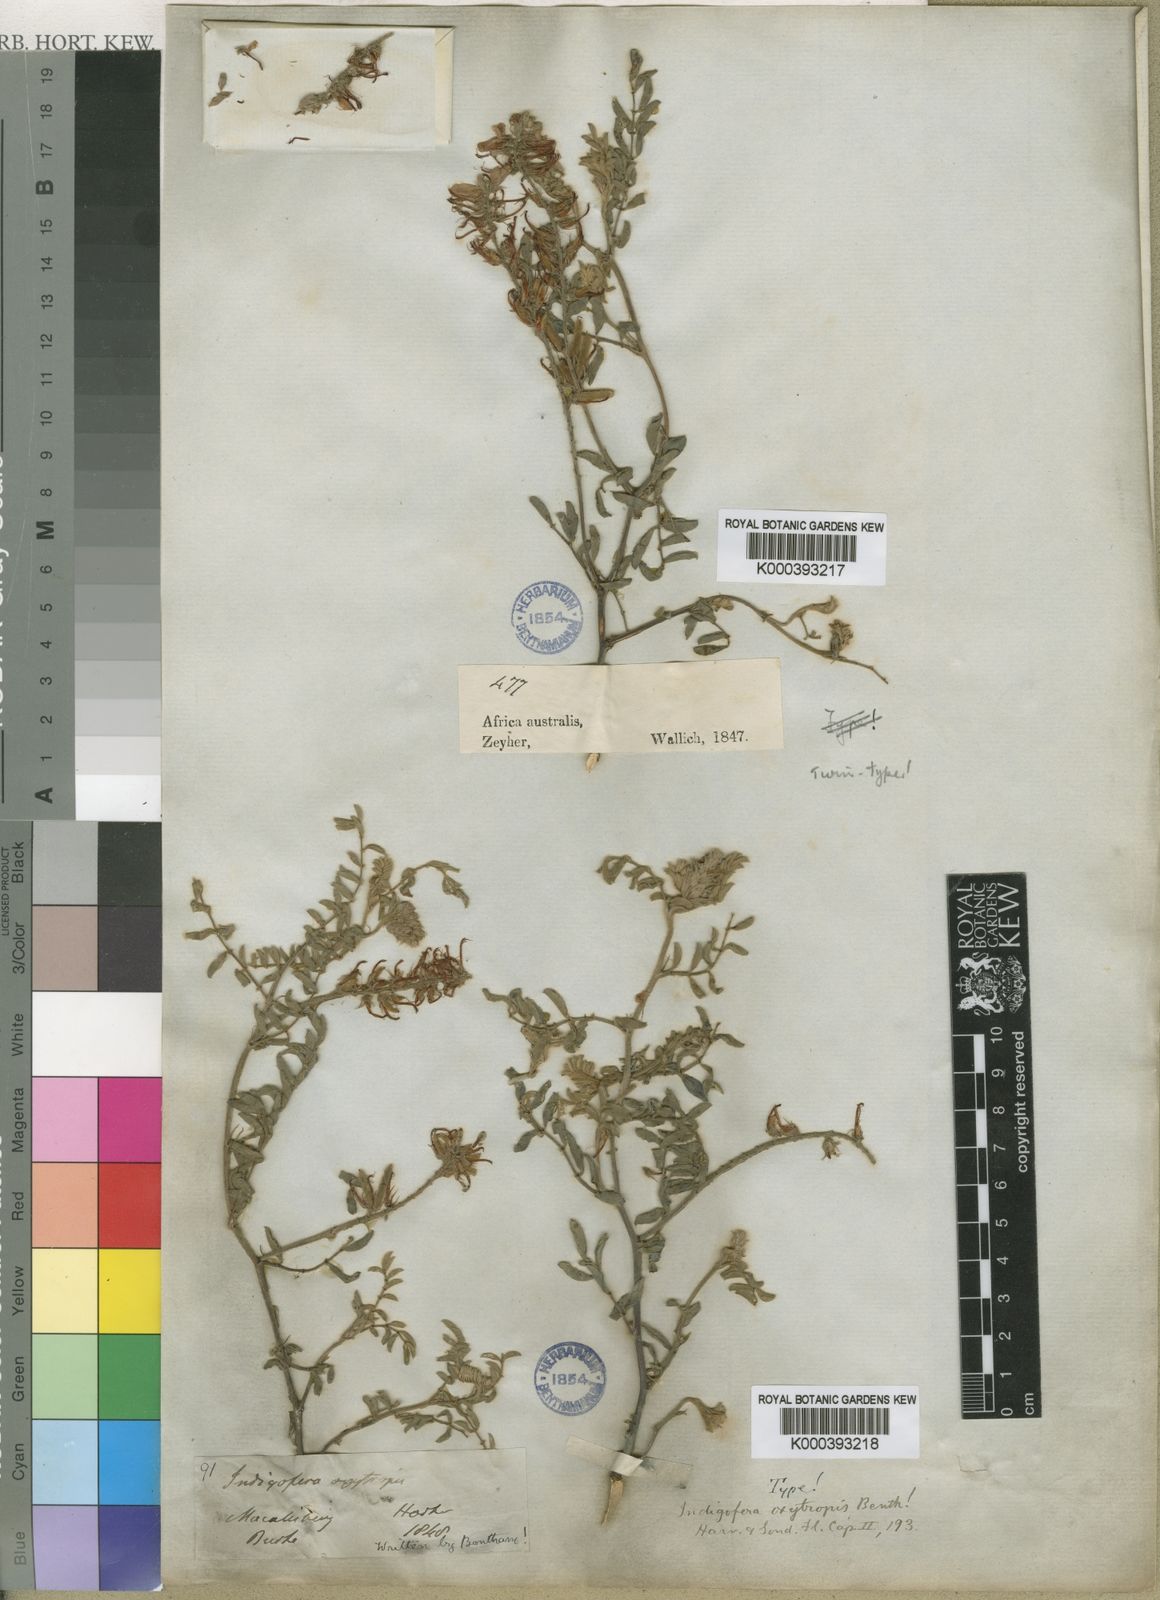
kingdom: Plantae
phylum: Tracheophyta
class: Magnoliopsida
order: Fabales
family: Fabaceae
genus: Indigofera
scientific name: Indigofera oxytropis
